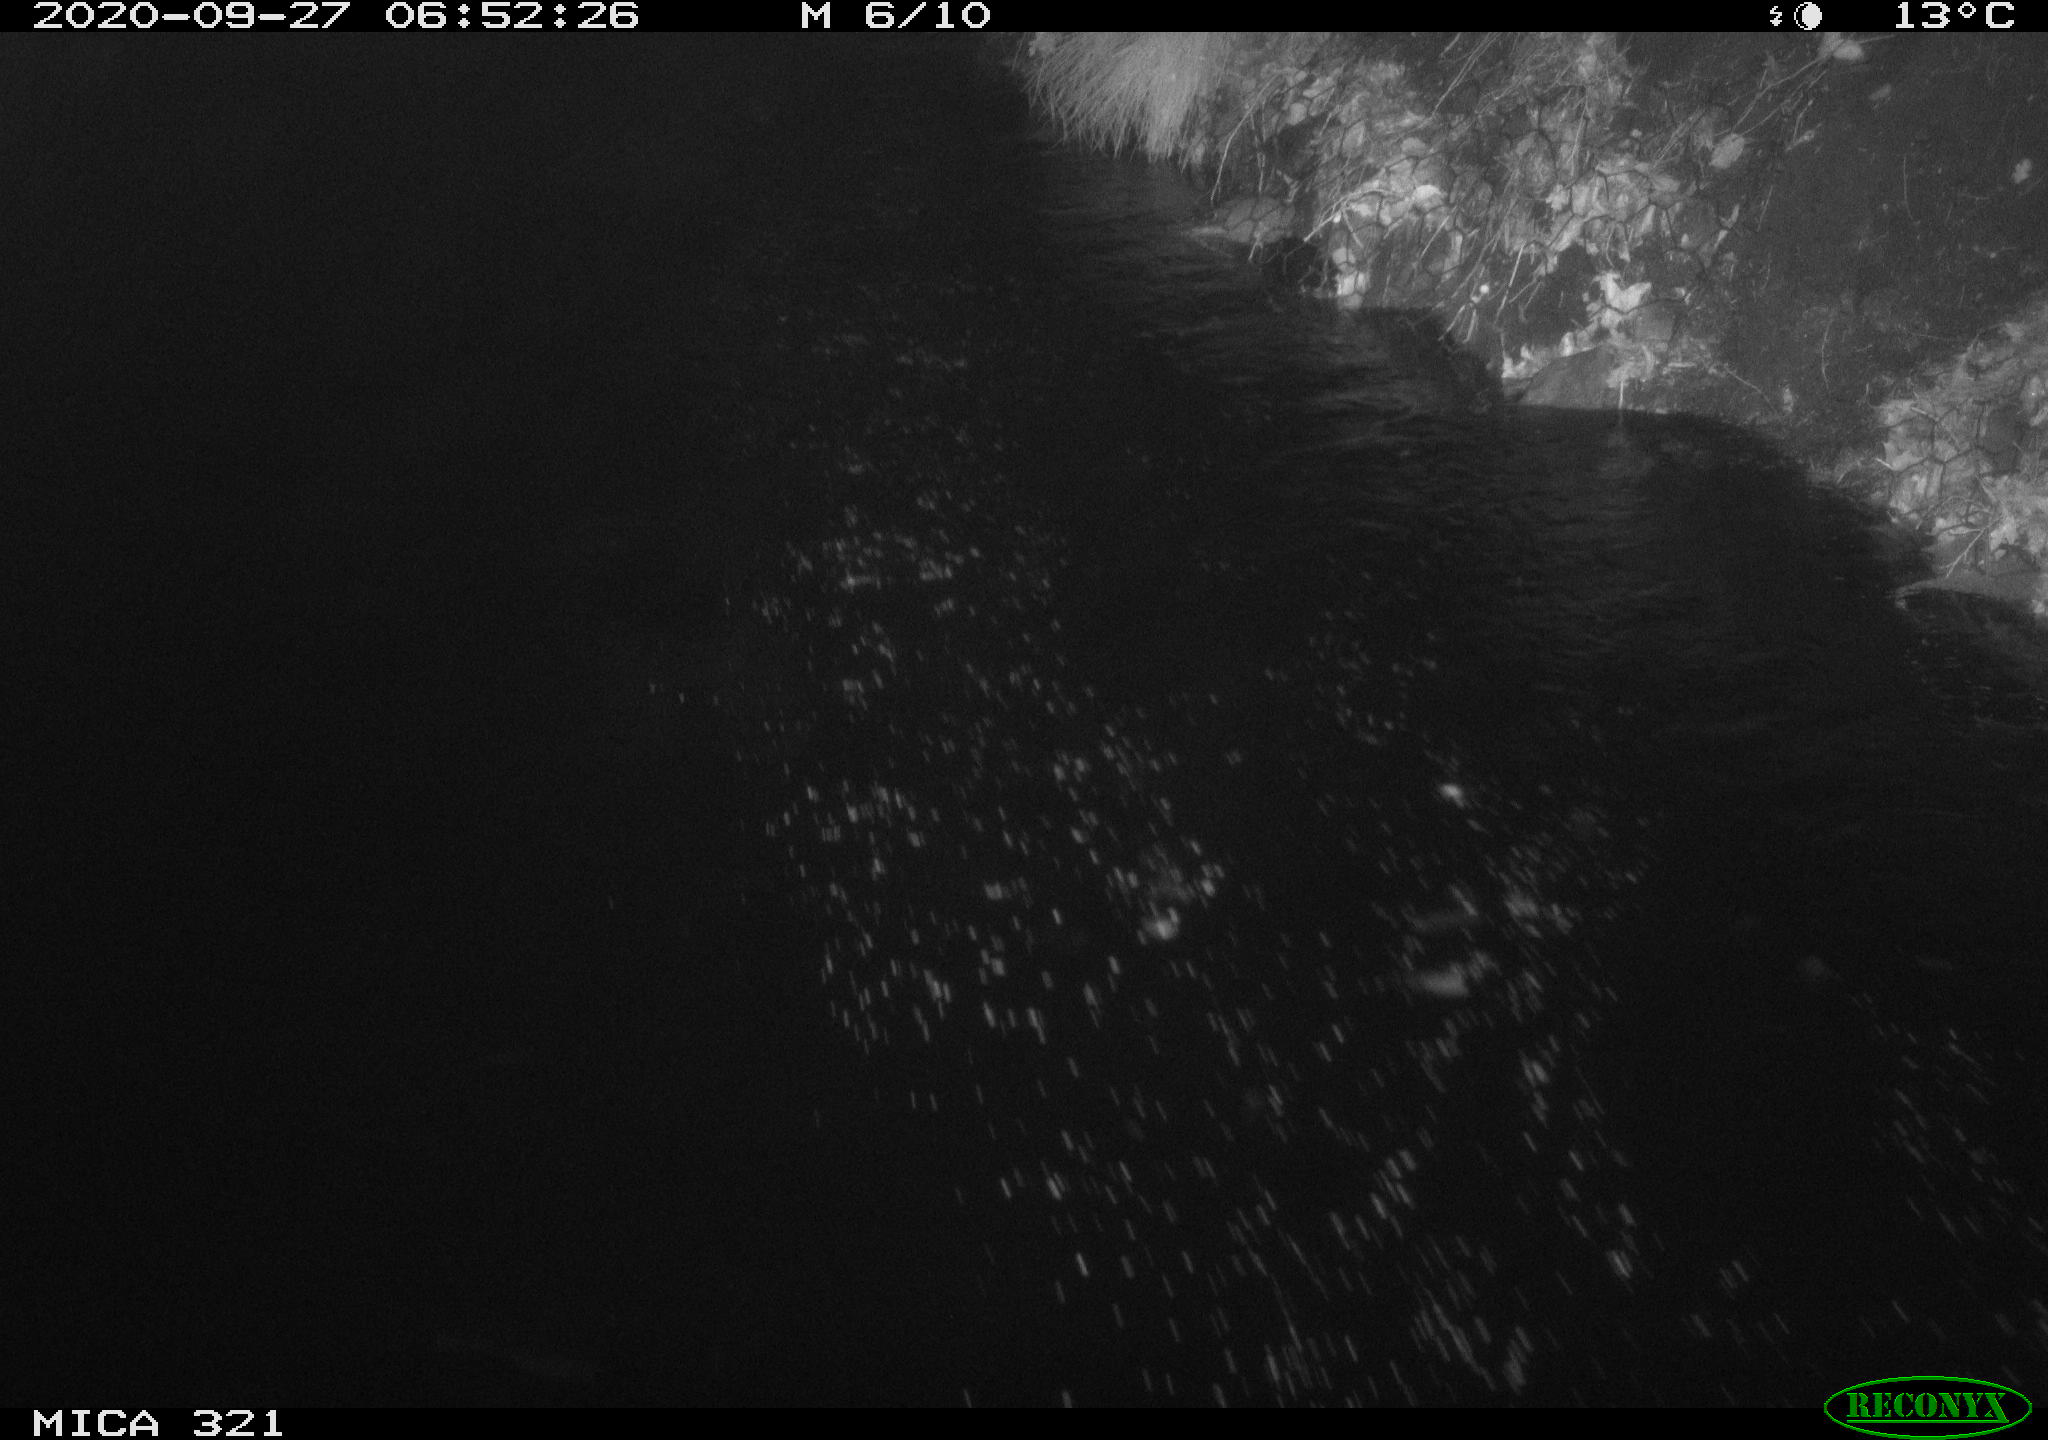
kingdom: Animalia
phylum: Chordata
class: Aves
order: Anseriformes
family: Anatidae
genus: Anas
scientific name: Anas platyrhynchos
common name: Mallard
